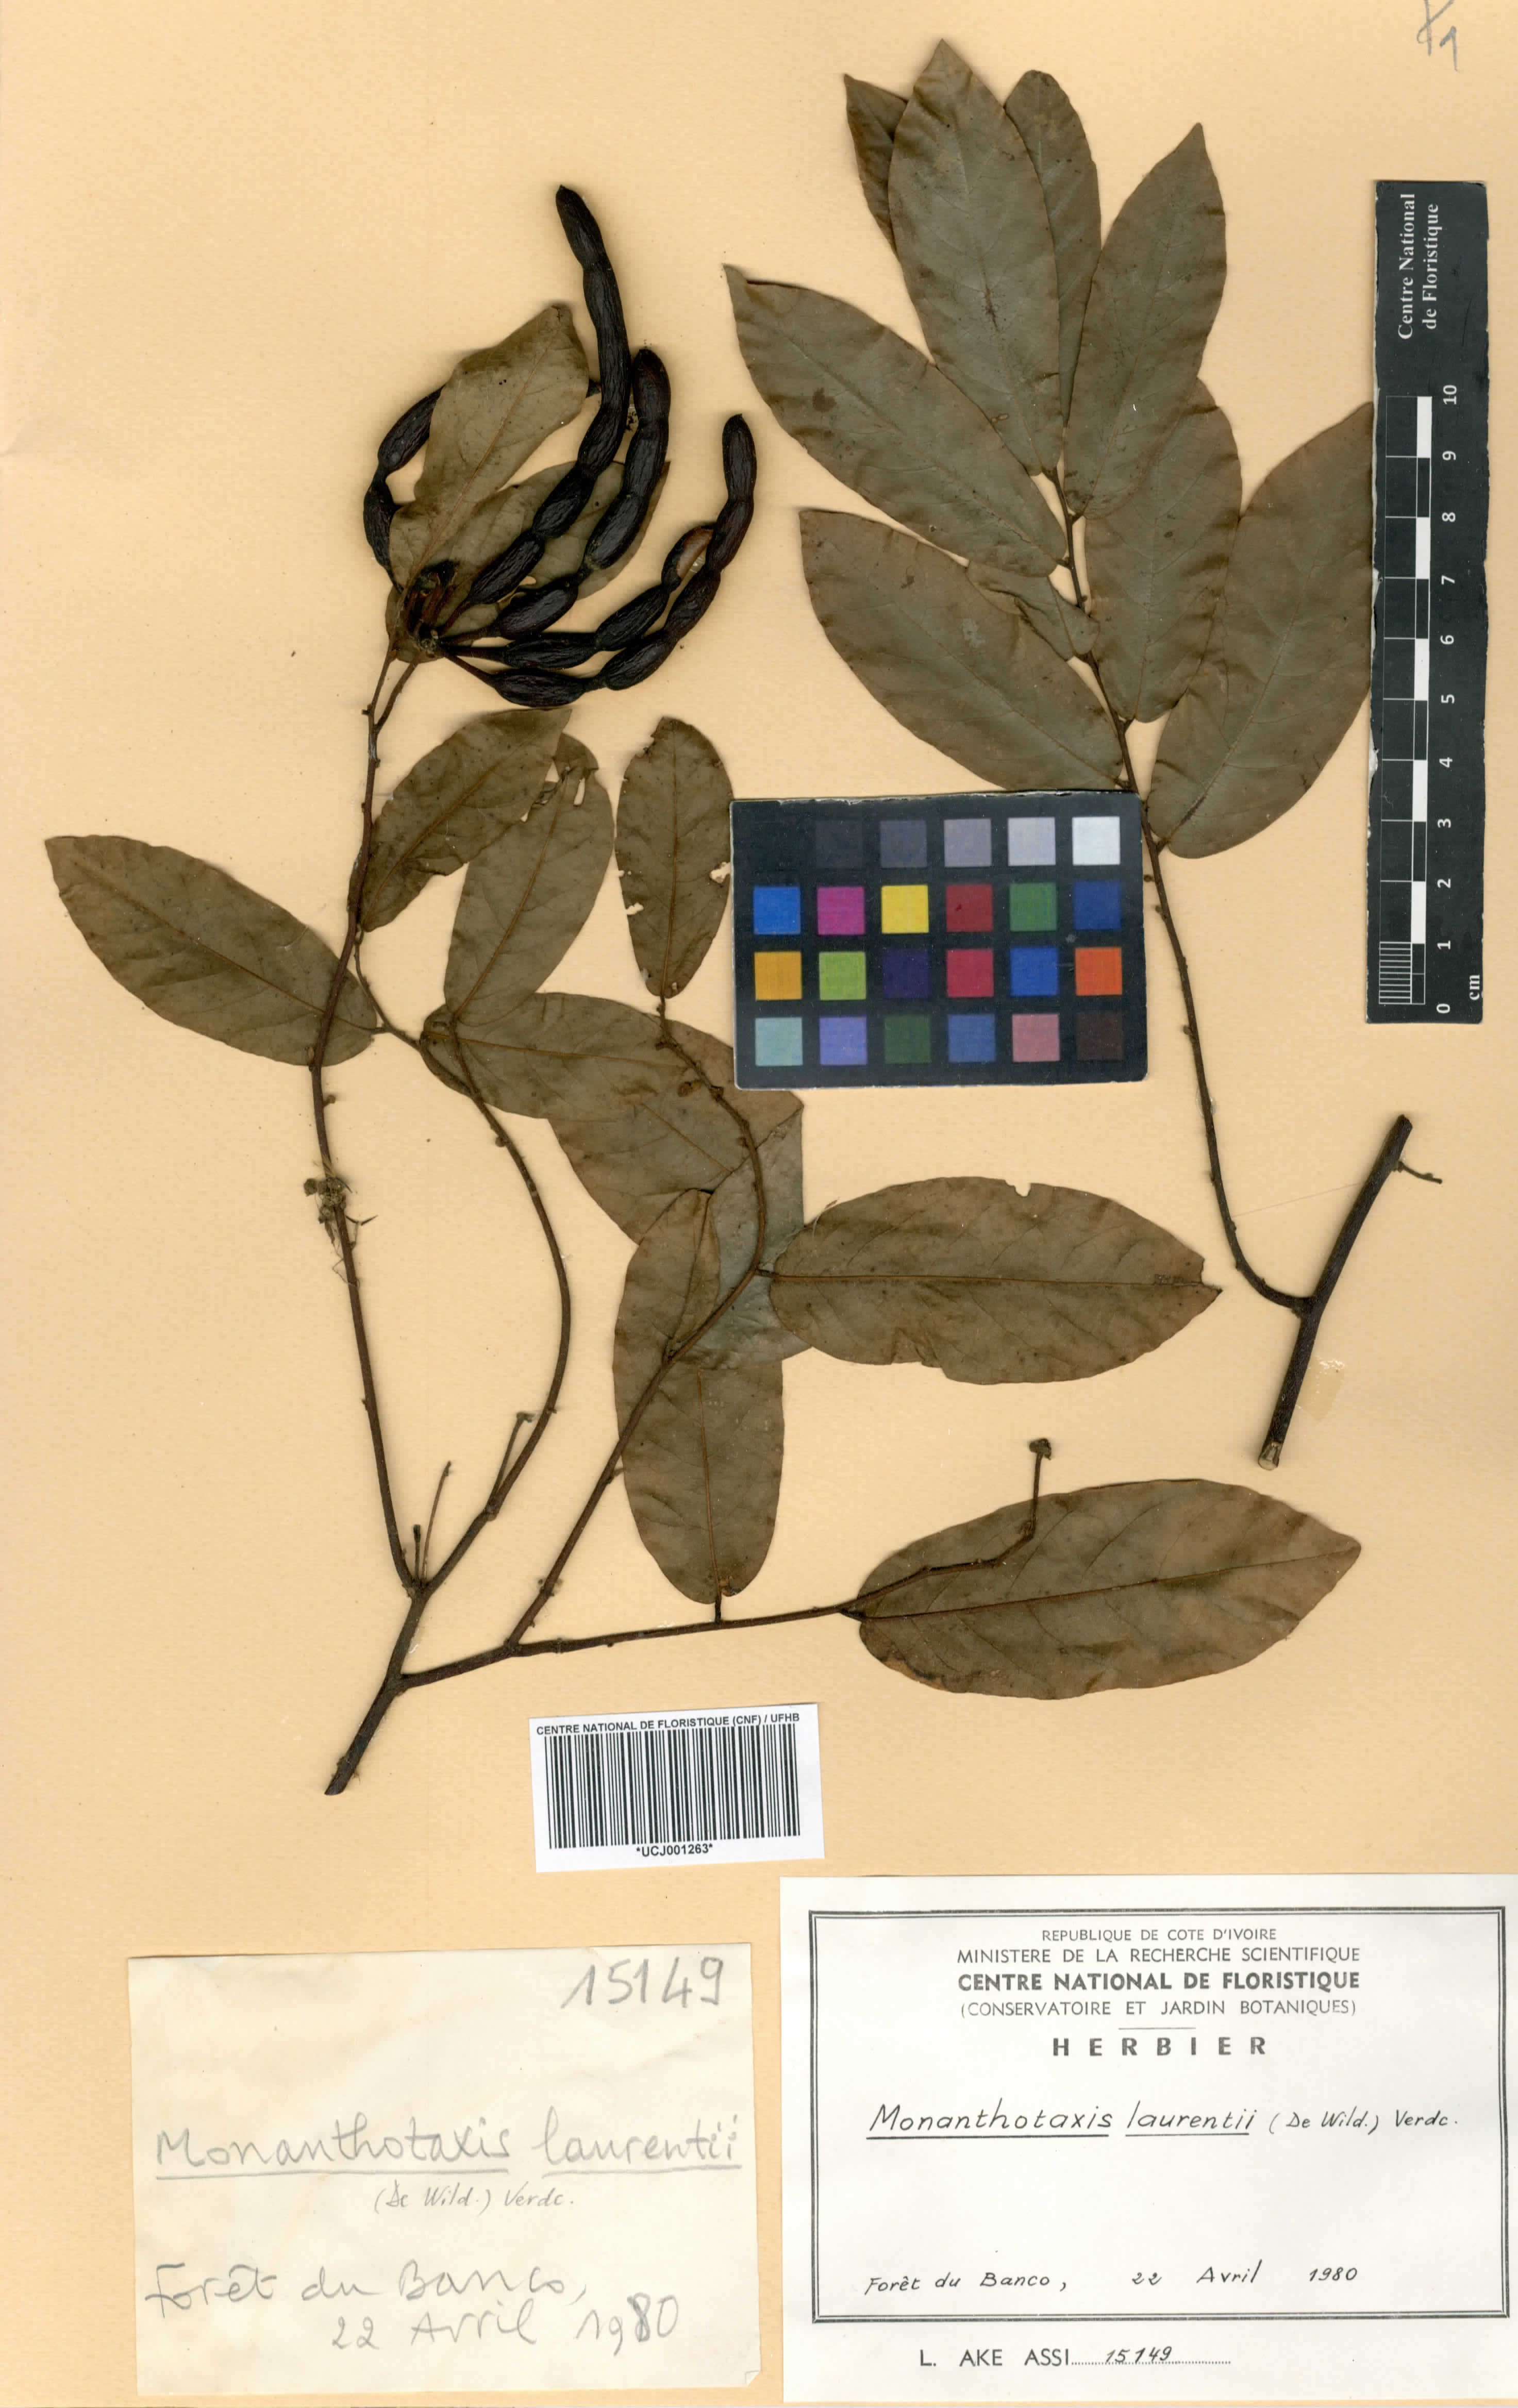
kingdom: Plantae
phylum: Tracheophyta
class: Magnoliopsida
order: Magnoliales
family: Annonaceae
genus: Monanthotaxis
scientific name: Monanthotaxis laurentii
